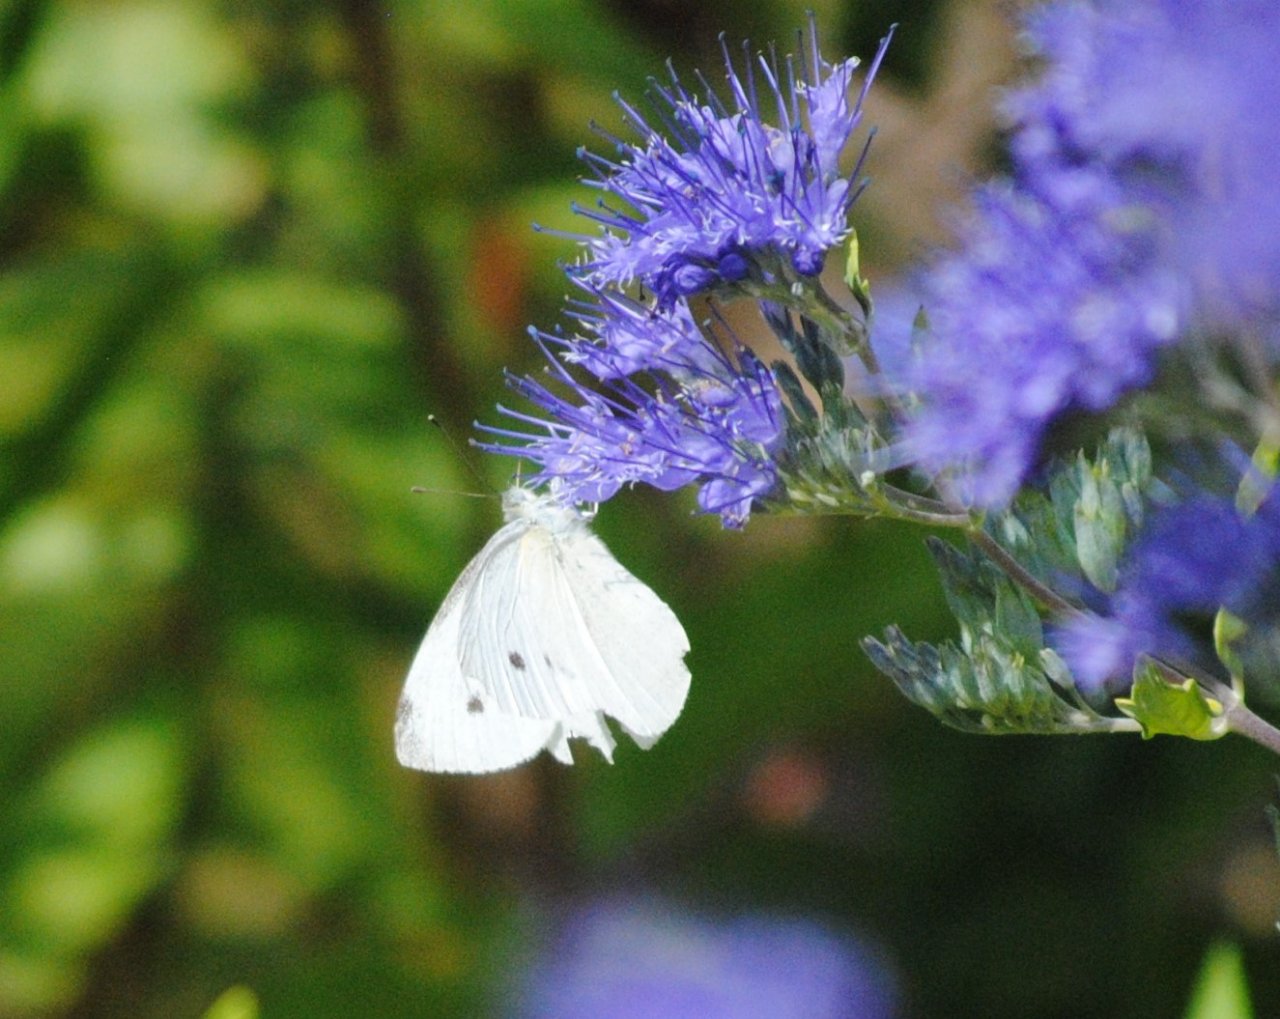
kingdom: Animalia
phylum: Arthropoda
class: Insecta
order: Lepidoptera
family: Pieridae
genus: Pieris
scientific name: Pieris rapae
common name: Cabbage White
